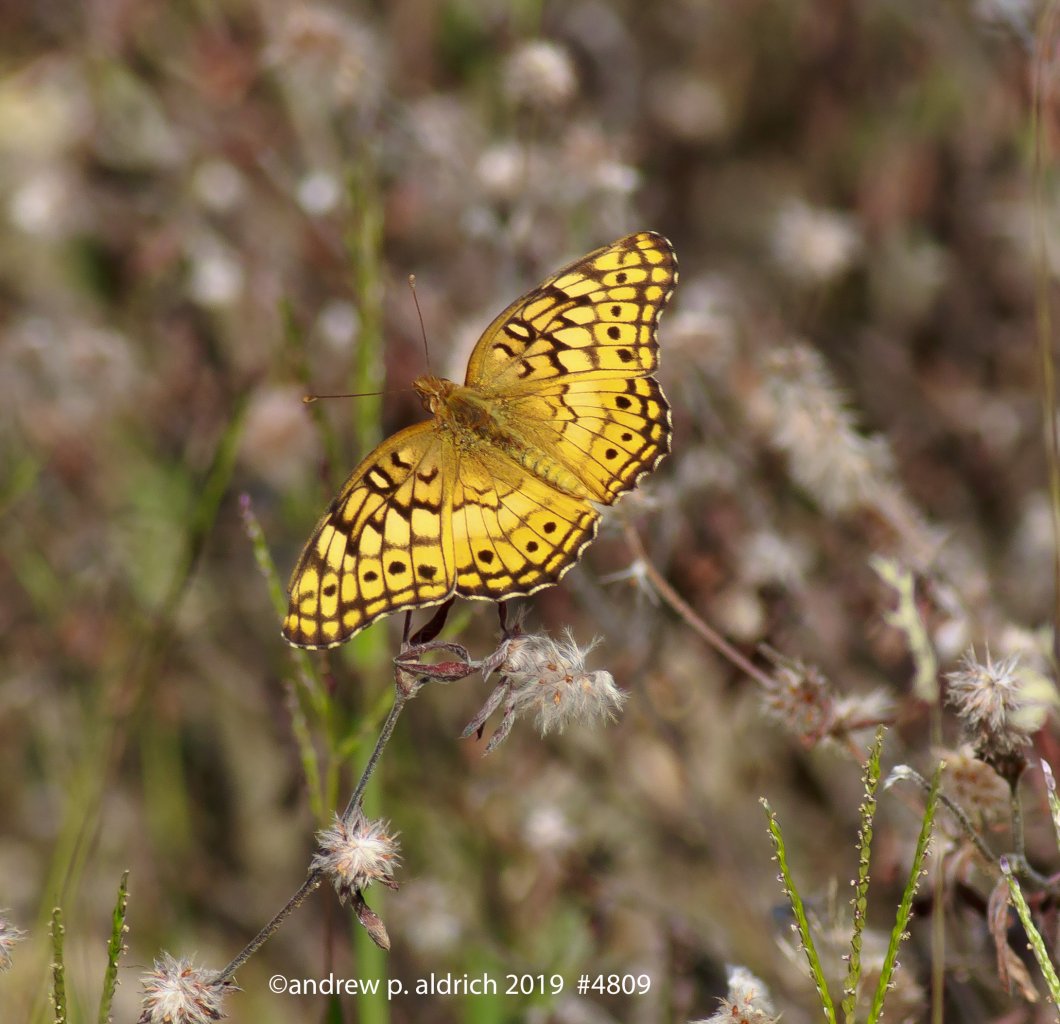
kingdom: Animalia
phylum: Arthropoda
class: Insecta
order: Lepidoptera
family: Nymphalidae
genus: Euptoieta
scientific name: Euptoieta claudia
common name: Variegated Fritillary
